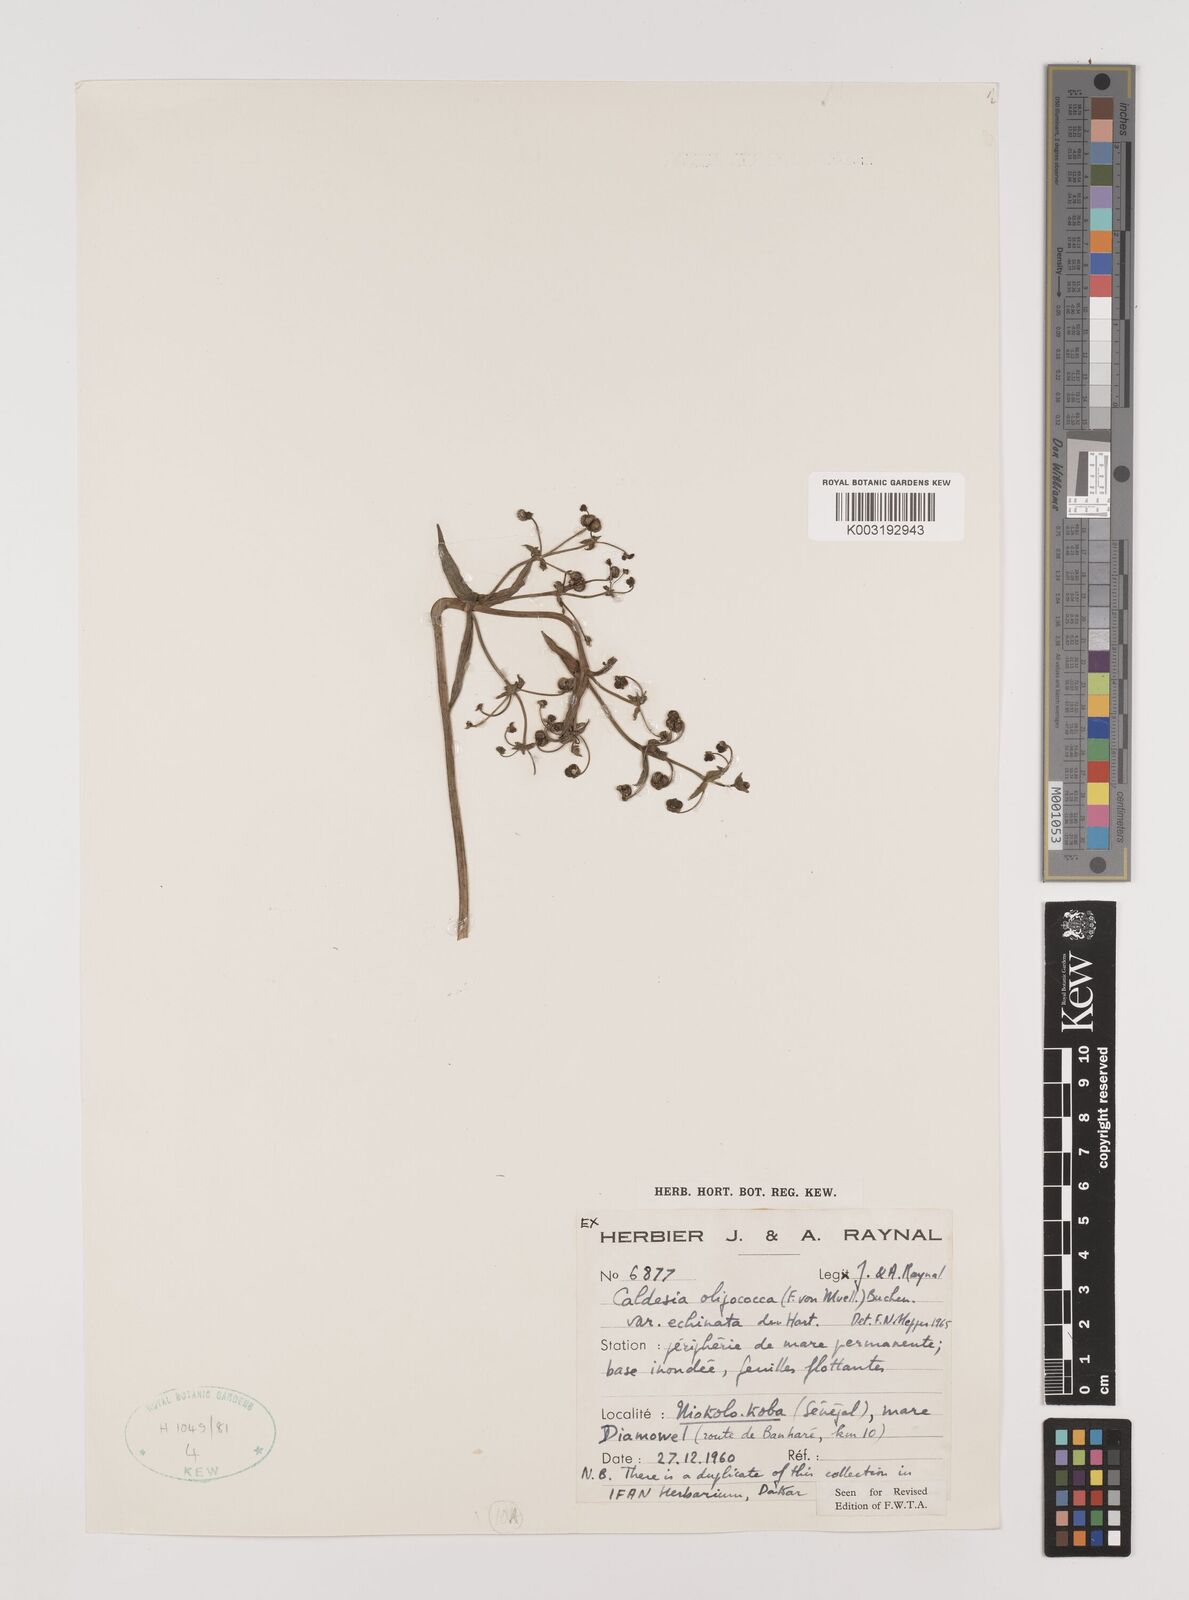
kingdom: Plantae
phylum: Tracheophyta
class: Liliopsida
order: Alismatales
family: Alismataceae
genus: Albidella
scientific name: Albidella glandulosa
